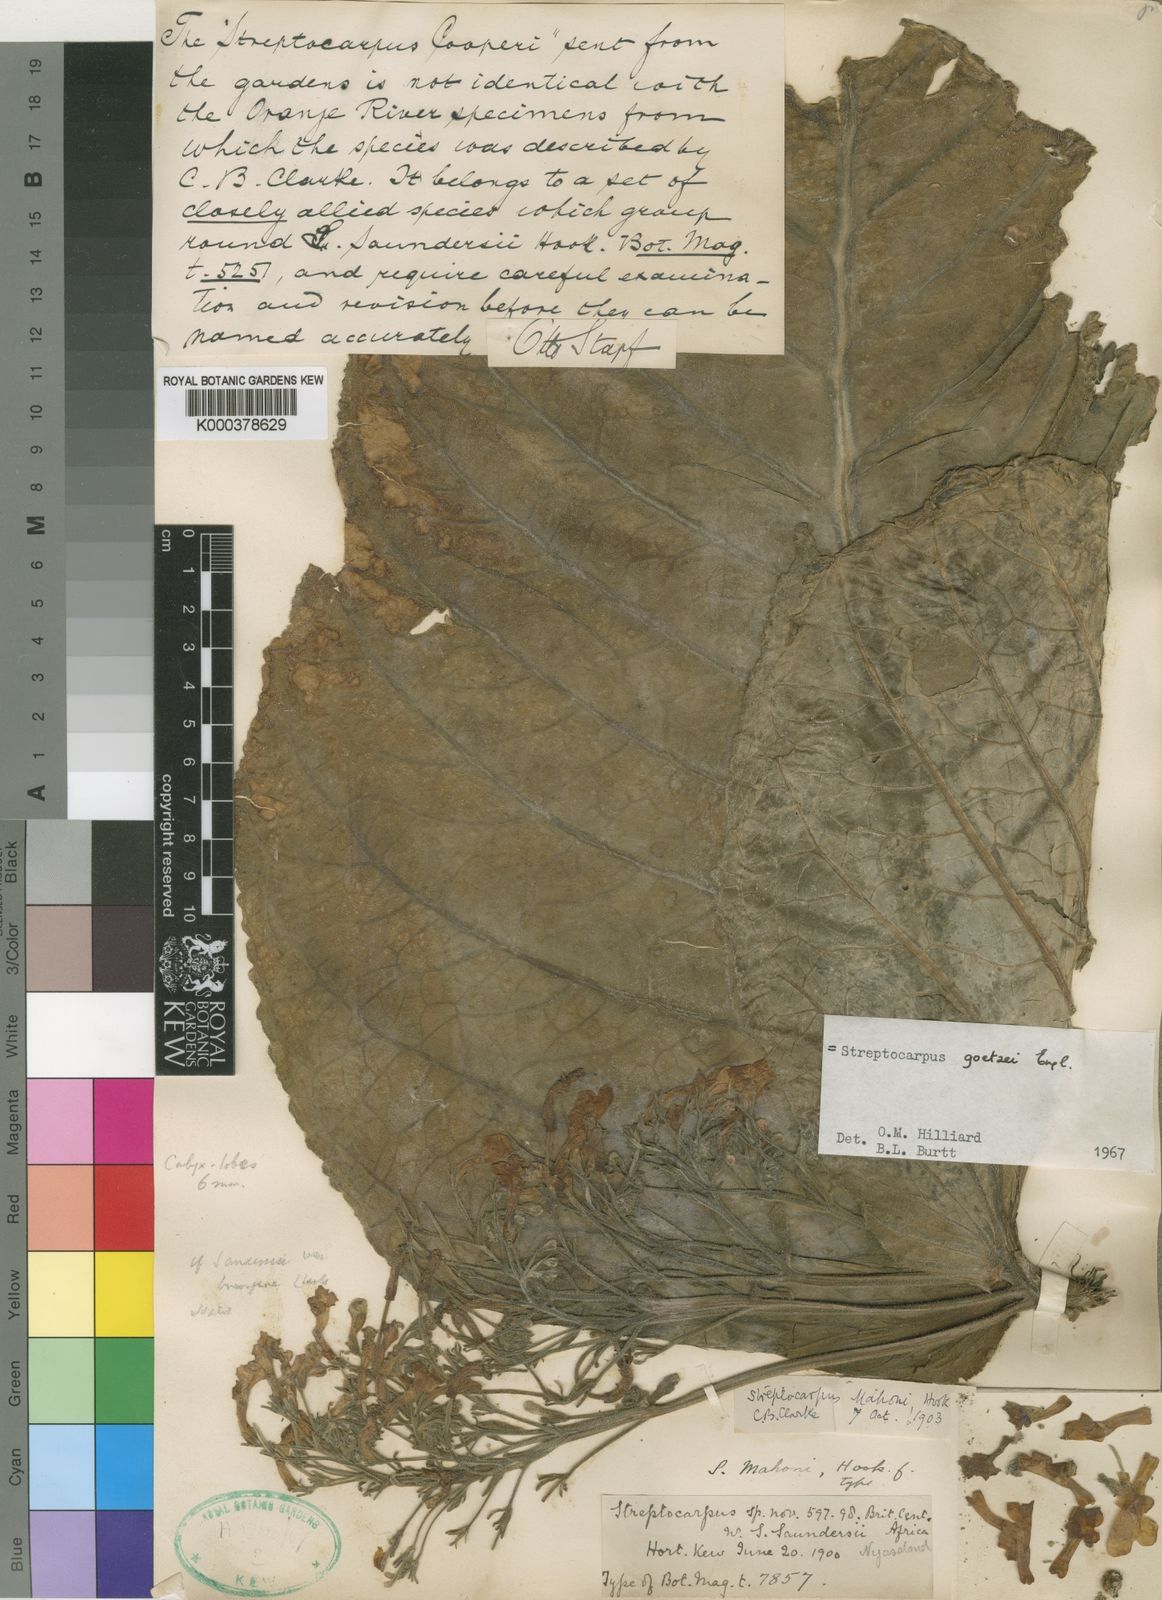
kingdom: Plantae
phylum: Tracheophyta
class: Magnoliopsida
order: Lamiales
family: Gesneriaceae
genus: Streptocarpus
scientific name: Streptocarpus goetzei
